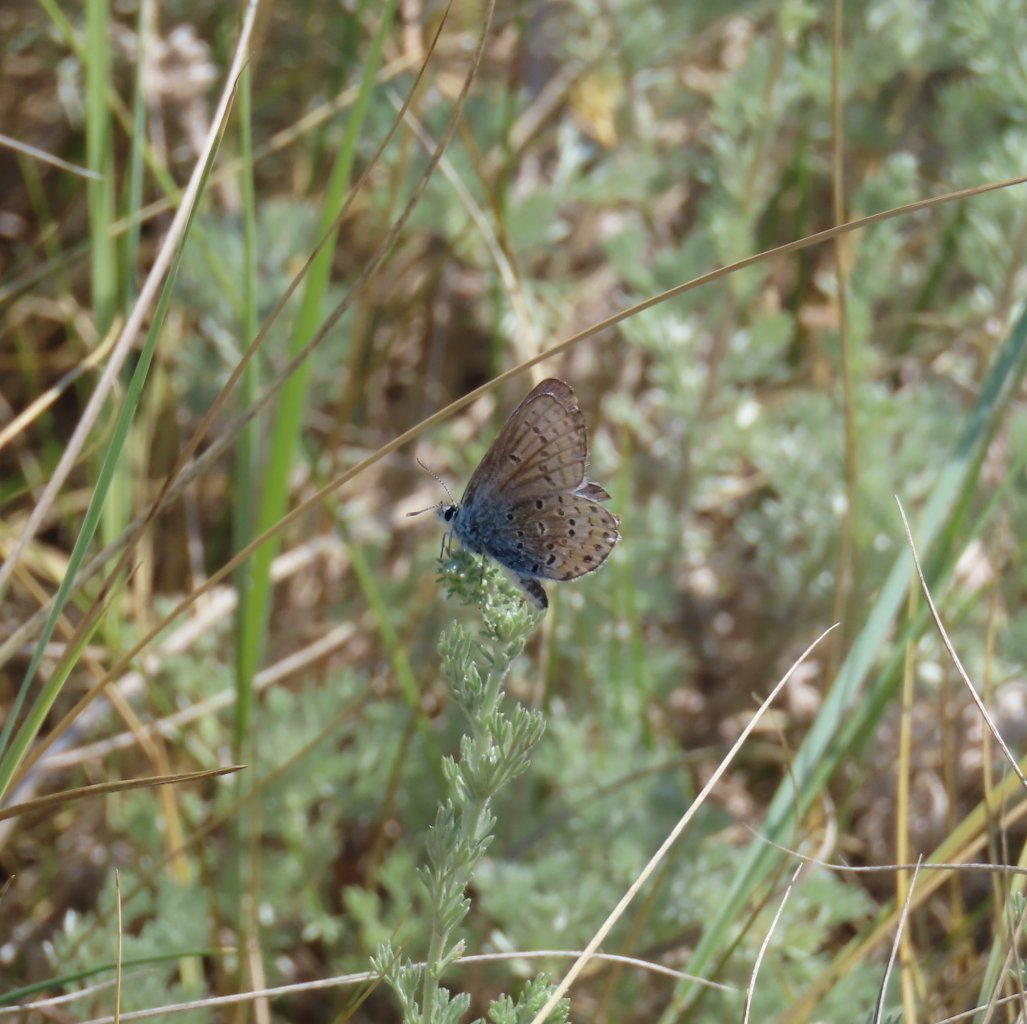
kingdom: Animalia
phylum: Arthropoda
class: Insecta
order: Lepidoptera
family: Lycaenidae
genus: Lycaeides
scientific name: Lycaeides melissa
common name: Melissa Blue
